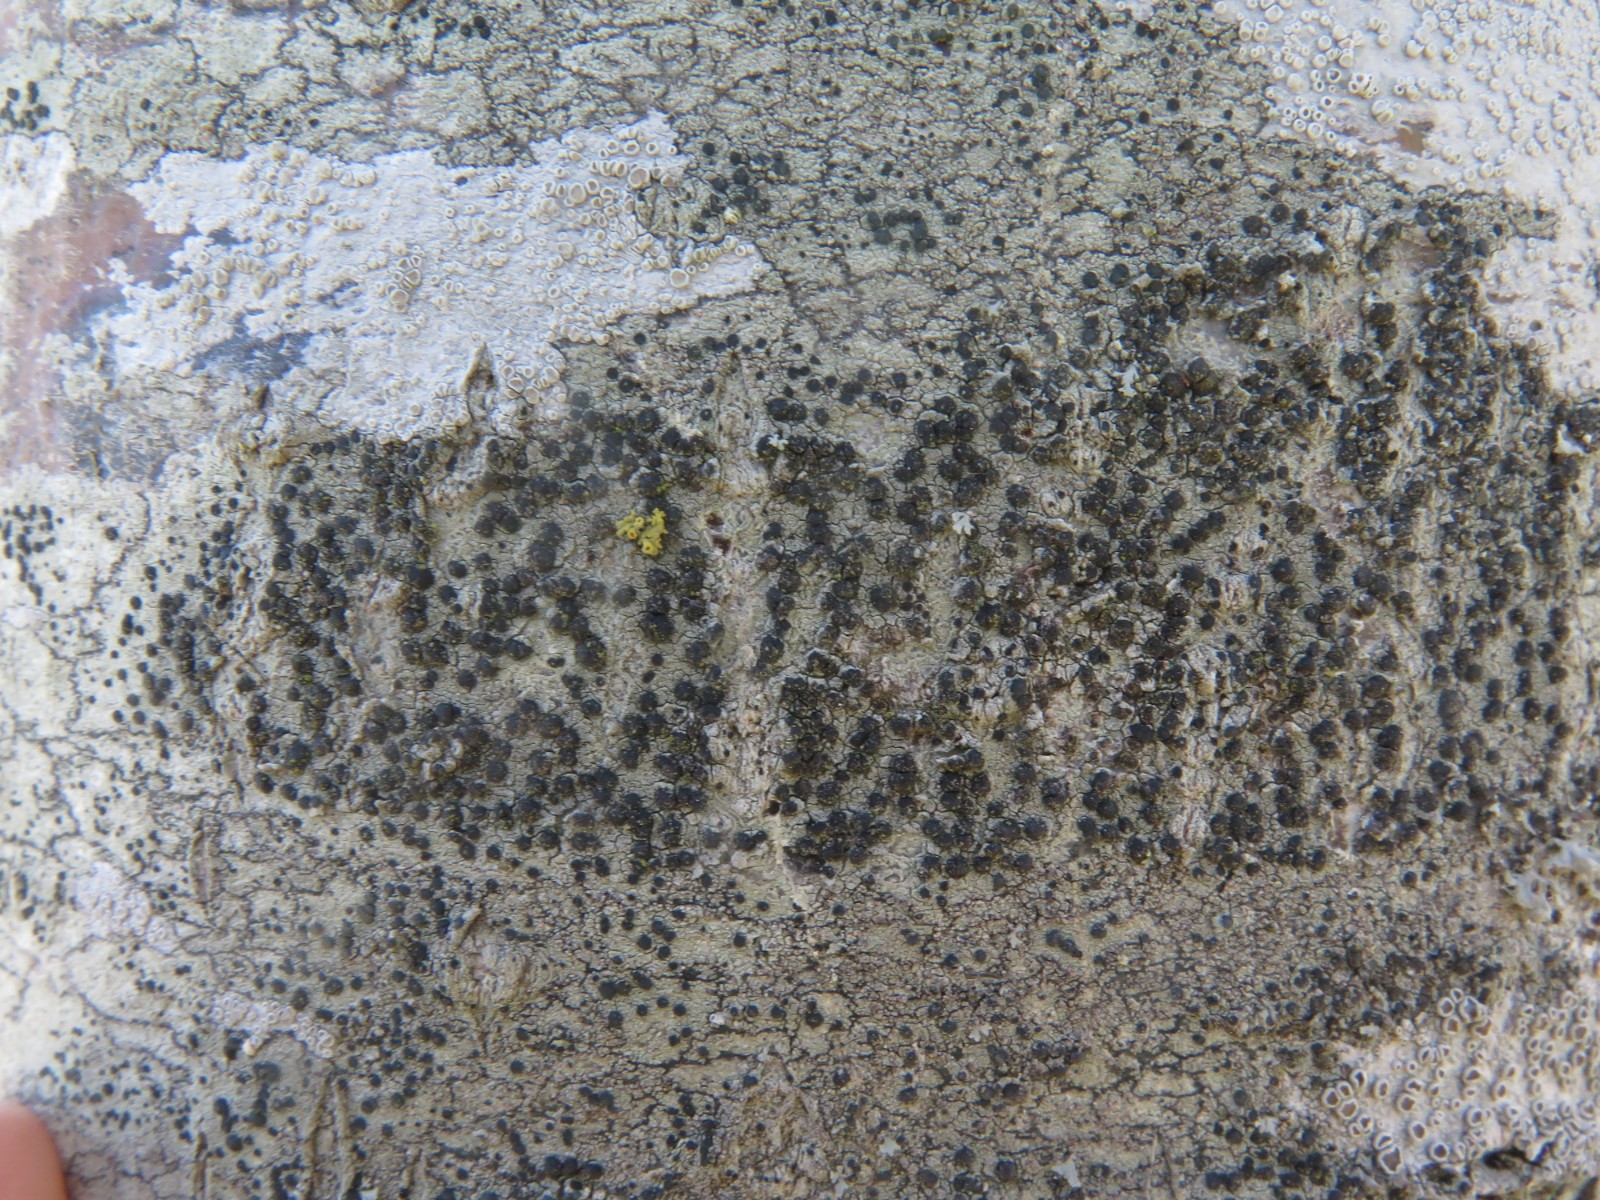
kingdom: Fungi
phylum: Ascomycota
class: Lecanoromycetes
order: Lecanorales
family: Lecanoraceae
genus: Lecidella
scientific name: Lecidella elaeochroma
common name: grågrøn skivelav
